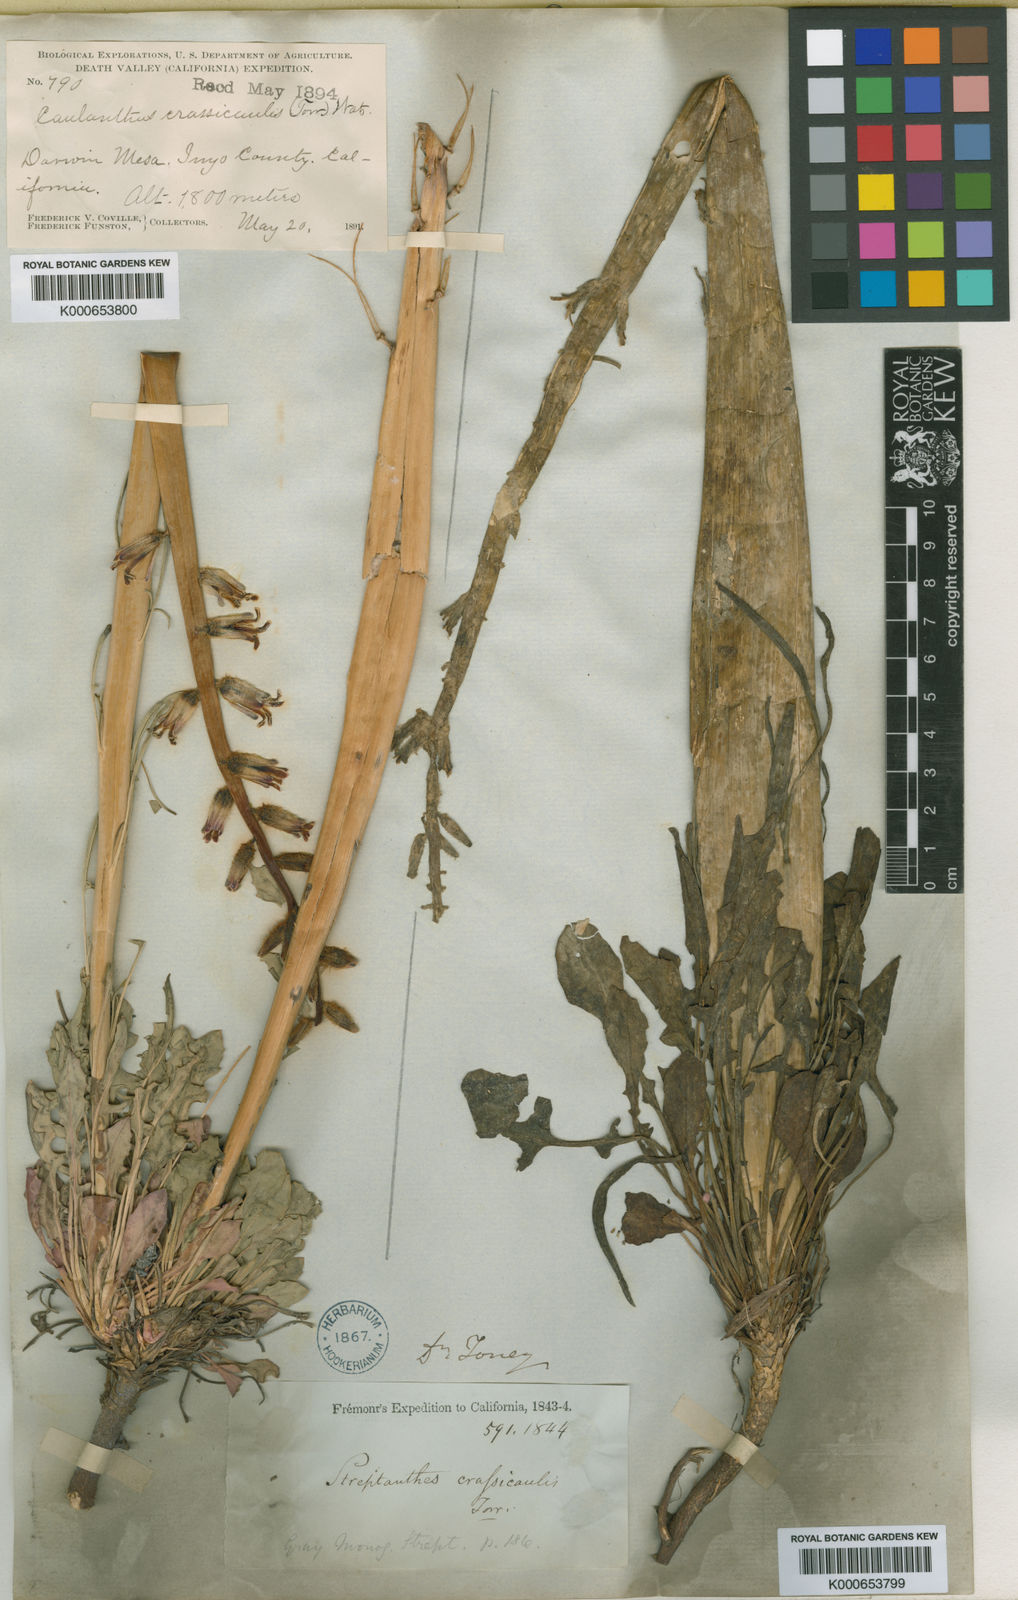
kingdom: Plantae
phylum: Tracheophyta
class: Magnoliopsida
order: Brassicales
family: Brassicaceae
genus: Streptanthus
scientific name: Streptanthus crassicaulis
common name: Thick-stem wild cabbage
